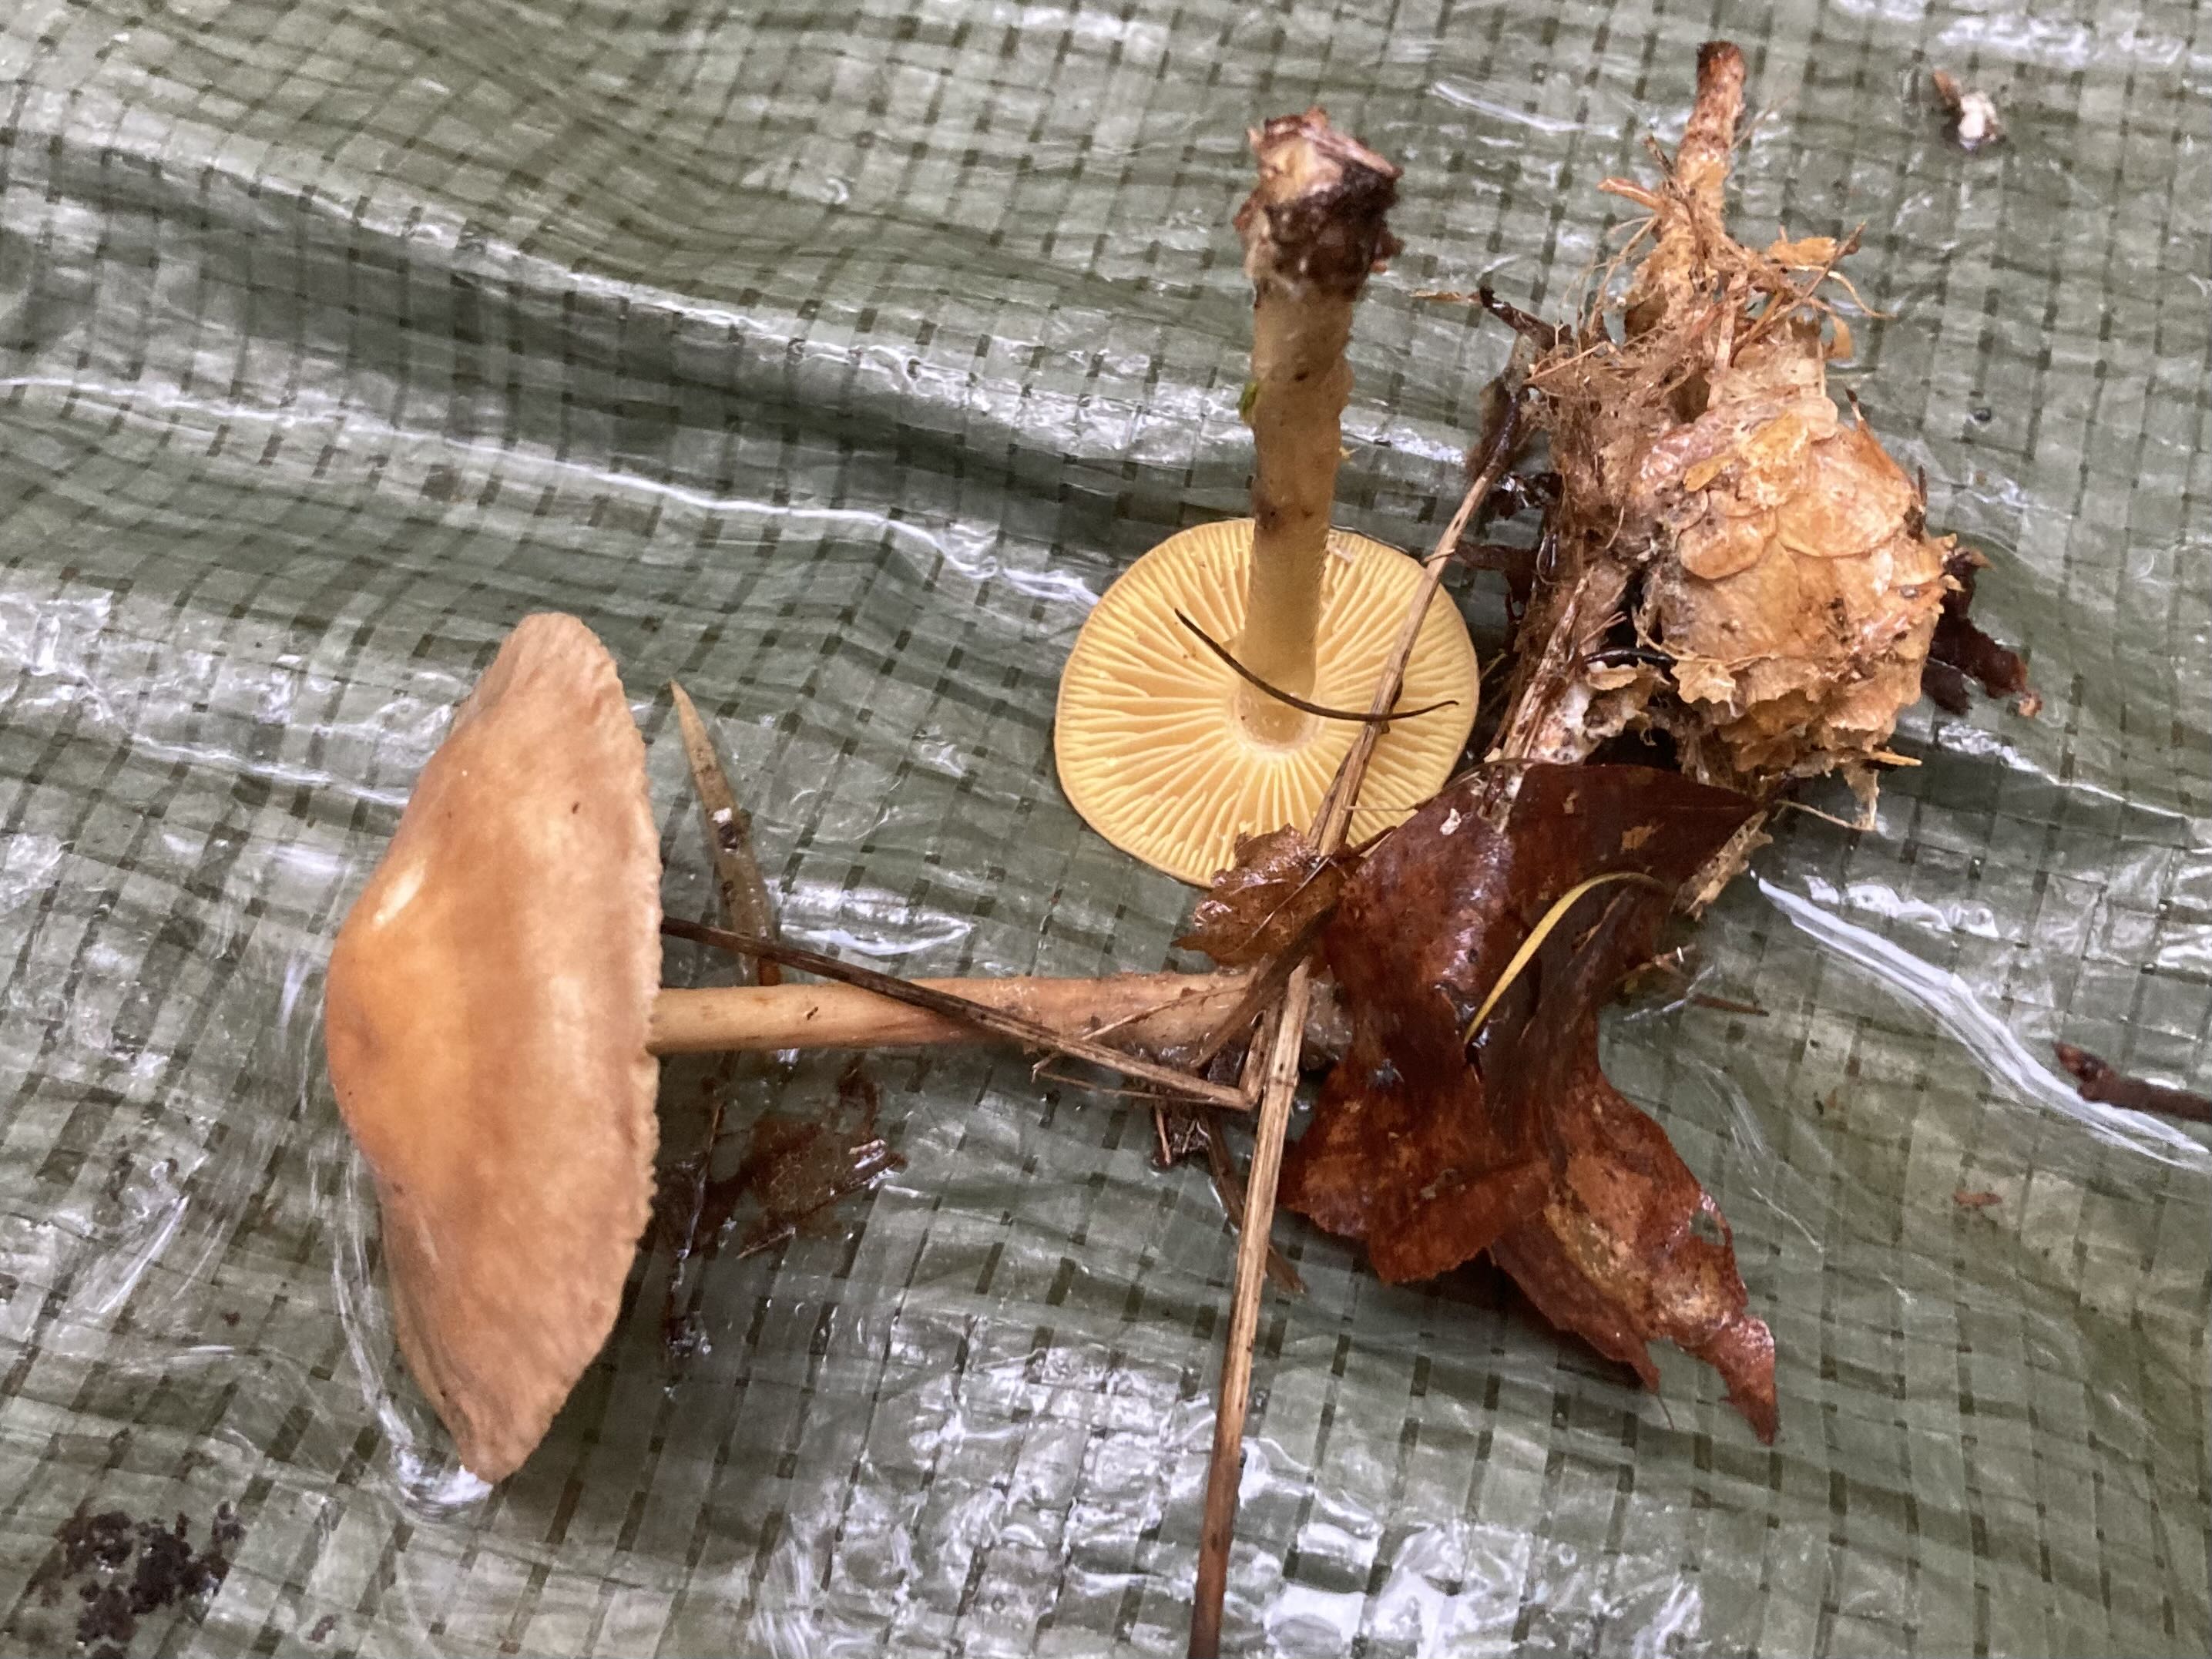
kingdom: Fungi
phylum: Basidiomycota
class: Agaricomycetes
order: Agaricales
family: Omphalotaceae
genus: Collybiopsis
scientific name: Collybiopsis peronata
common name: bestøvlet fladhat
